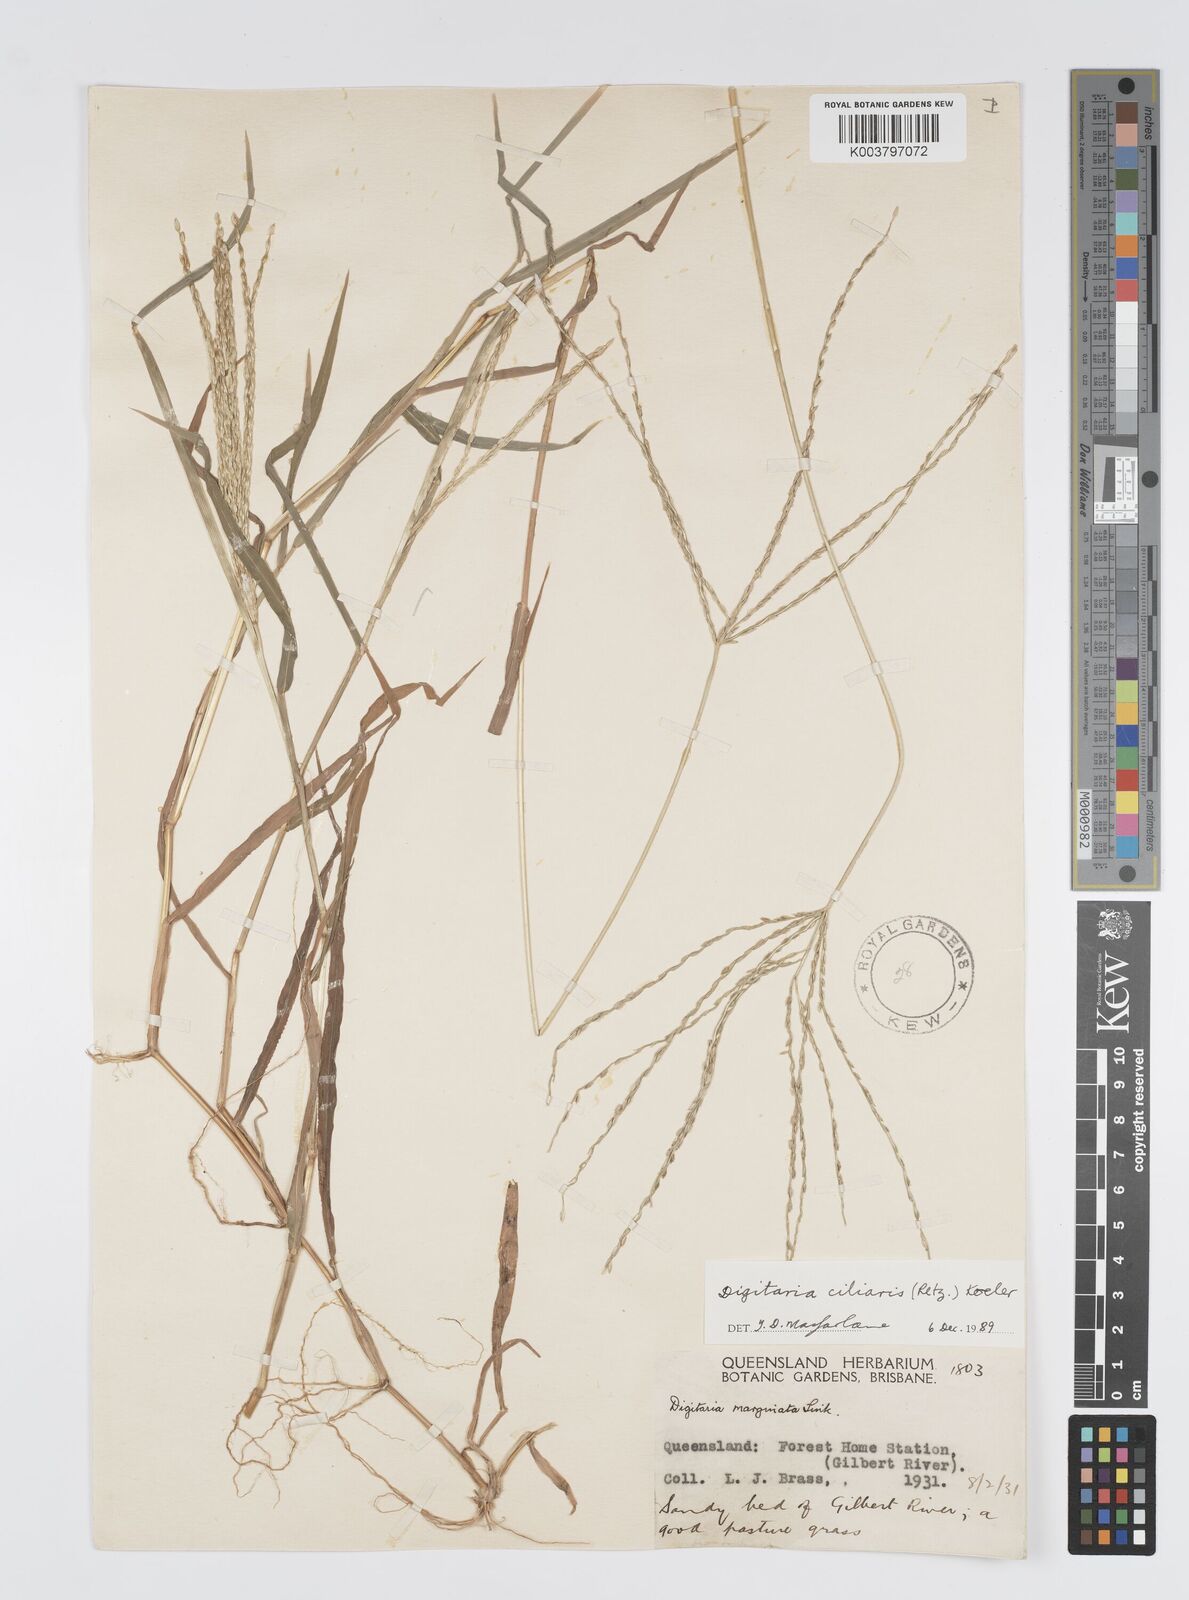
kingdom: Plantae
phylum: Tracheophyta
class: Liliopsida
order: Poales
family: Poaceae
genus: Digitaria
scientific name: Digitaria ciliaris
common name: Tropical finger-grass
